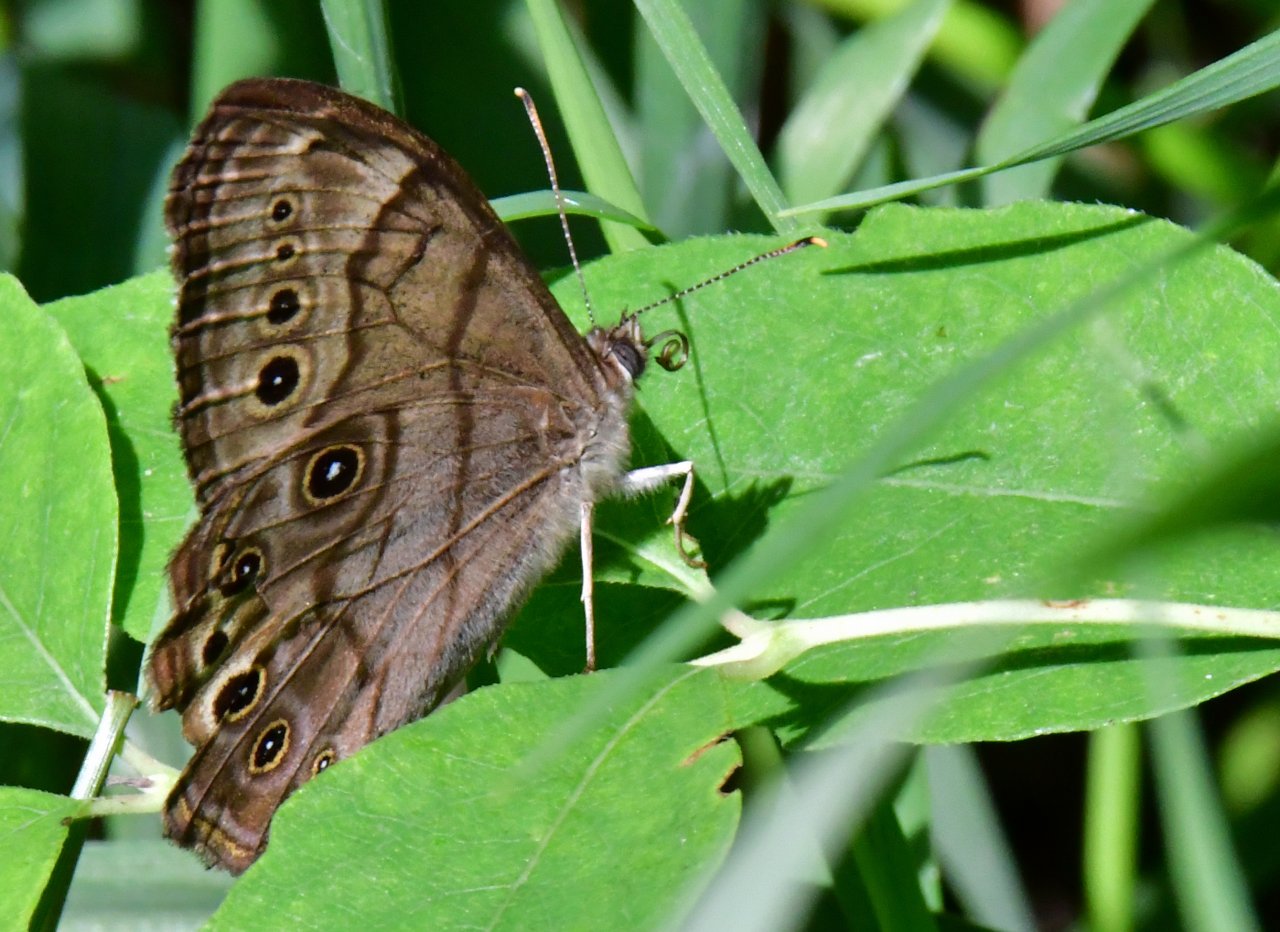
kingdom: Animalia
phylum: Arthropoda
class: Insecta
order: Lepidoptera
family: Nymphalidae
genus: Lethe
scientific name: Lethe anthedon
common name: Northern Pearly-Eye
